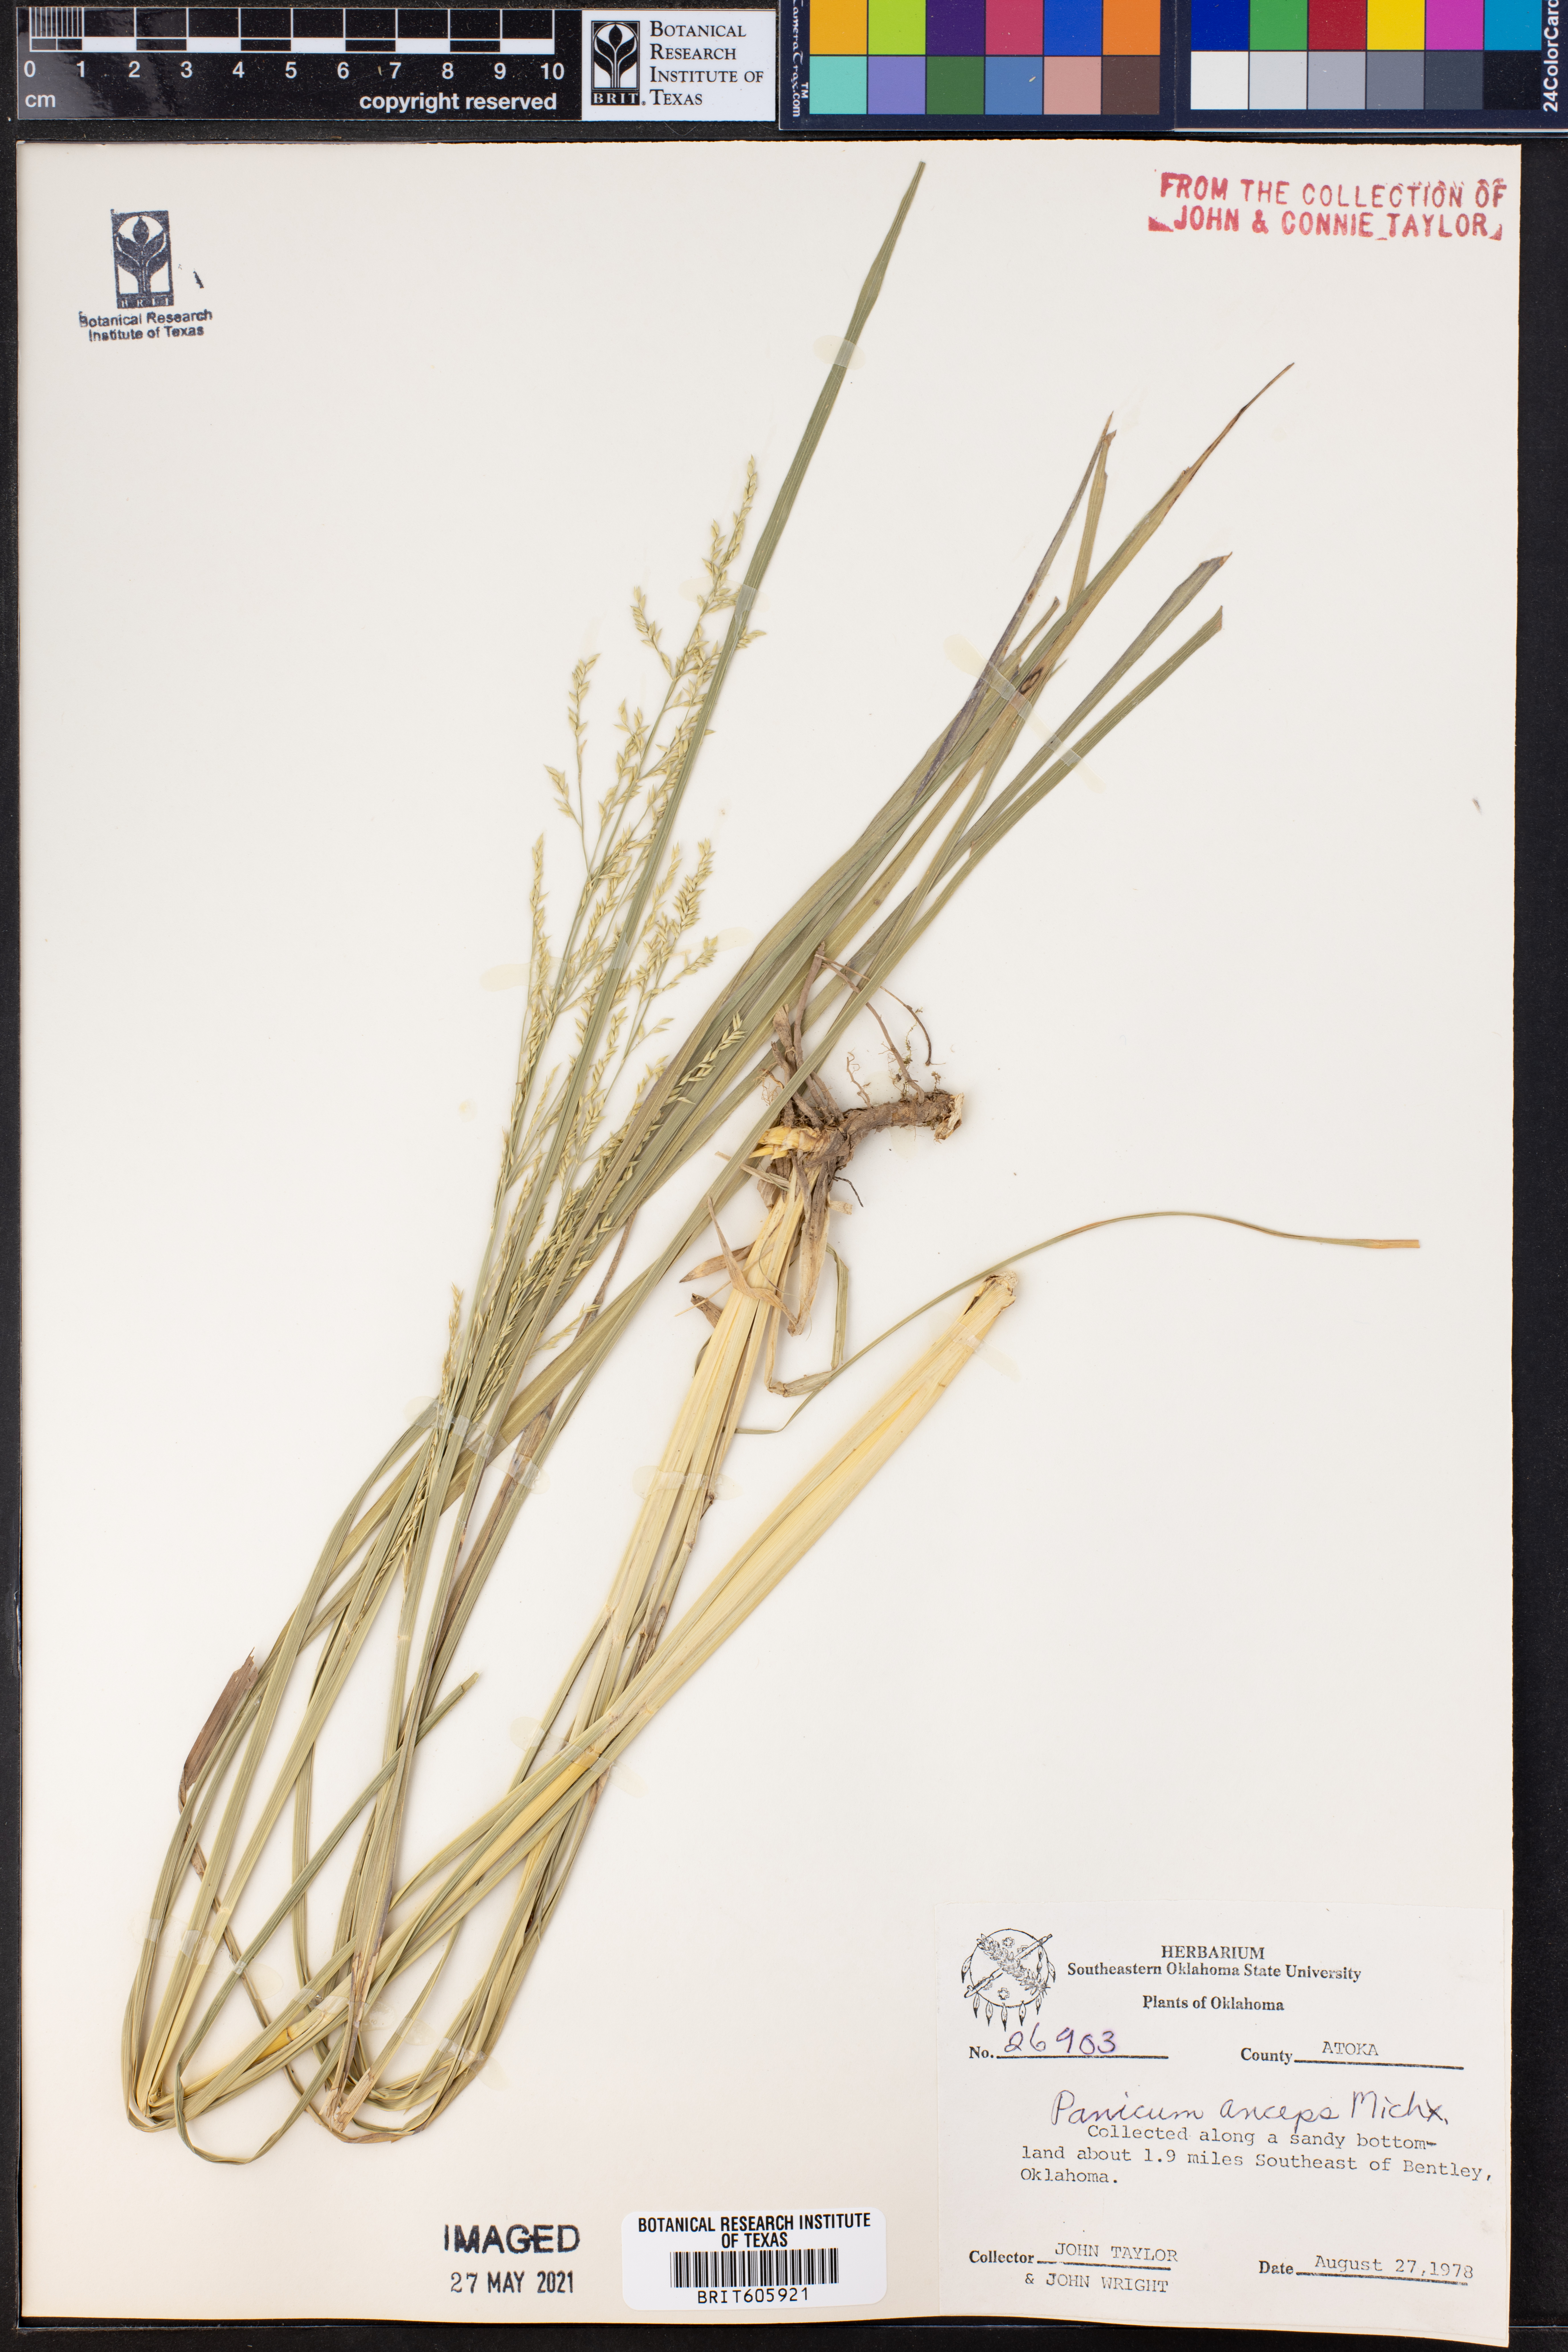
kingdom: Plantae
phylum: Tracheophyta
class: Liliopsida
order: Poales
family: Poaceae
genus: Coleataenia
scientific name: Coleataenia anceps
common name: Beaked panic grass
